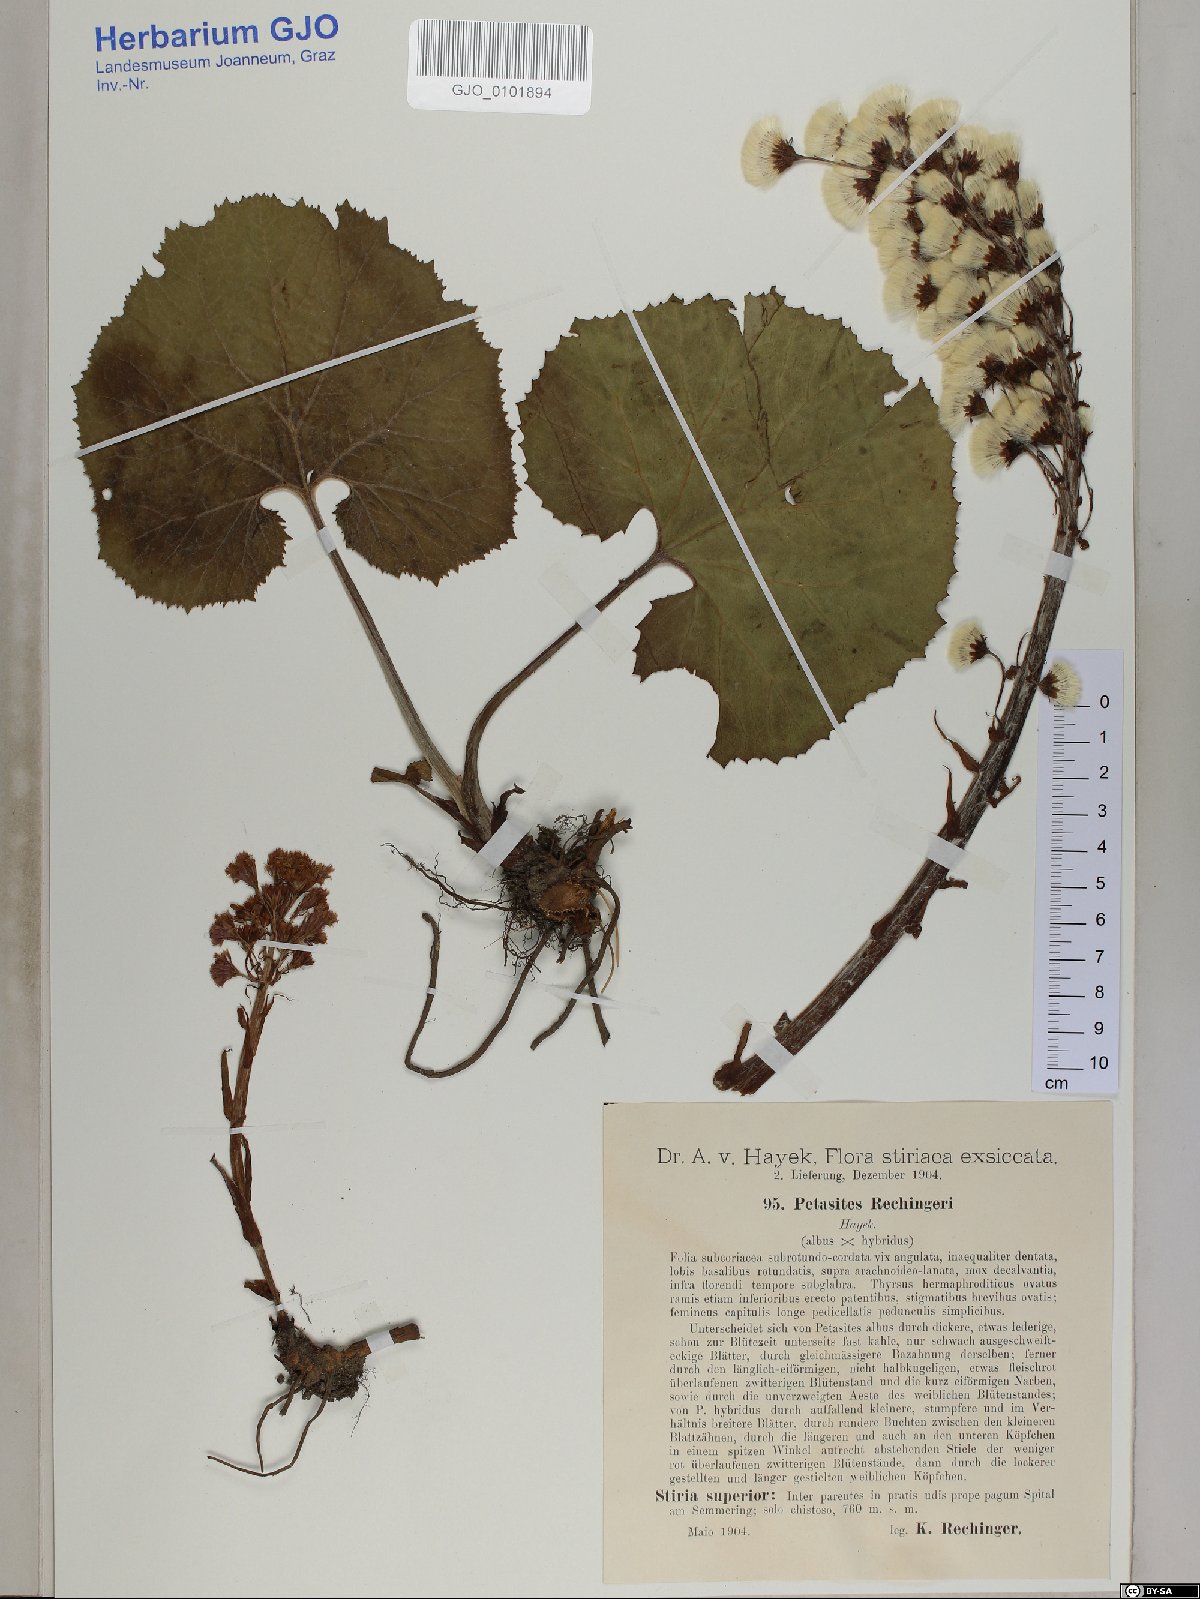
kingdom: Plantae
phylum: Tracheophyta
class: Magnoliopsida
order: Asterales
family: Asteraceae
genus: Petasites
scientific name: Petasites rechingeri
